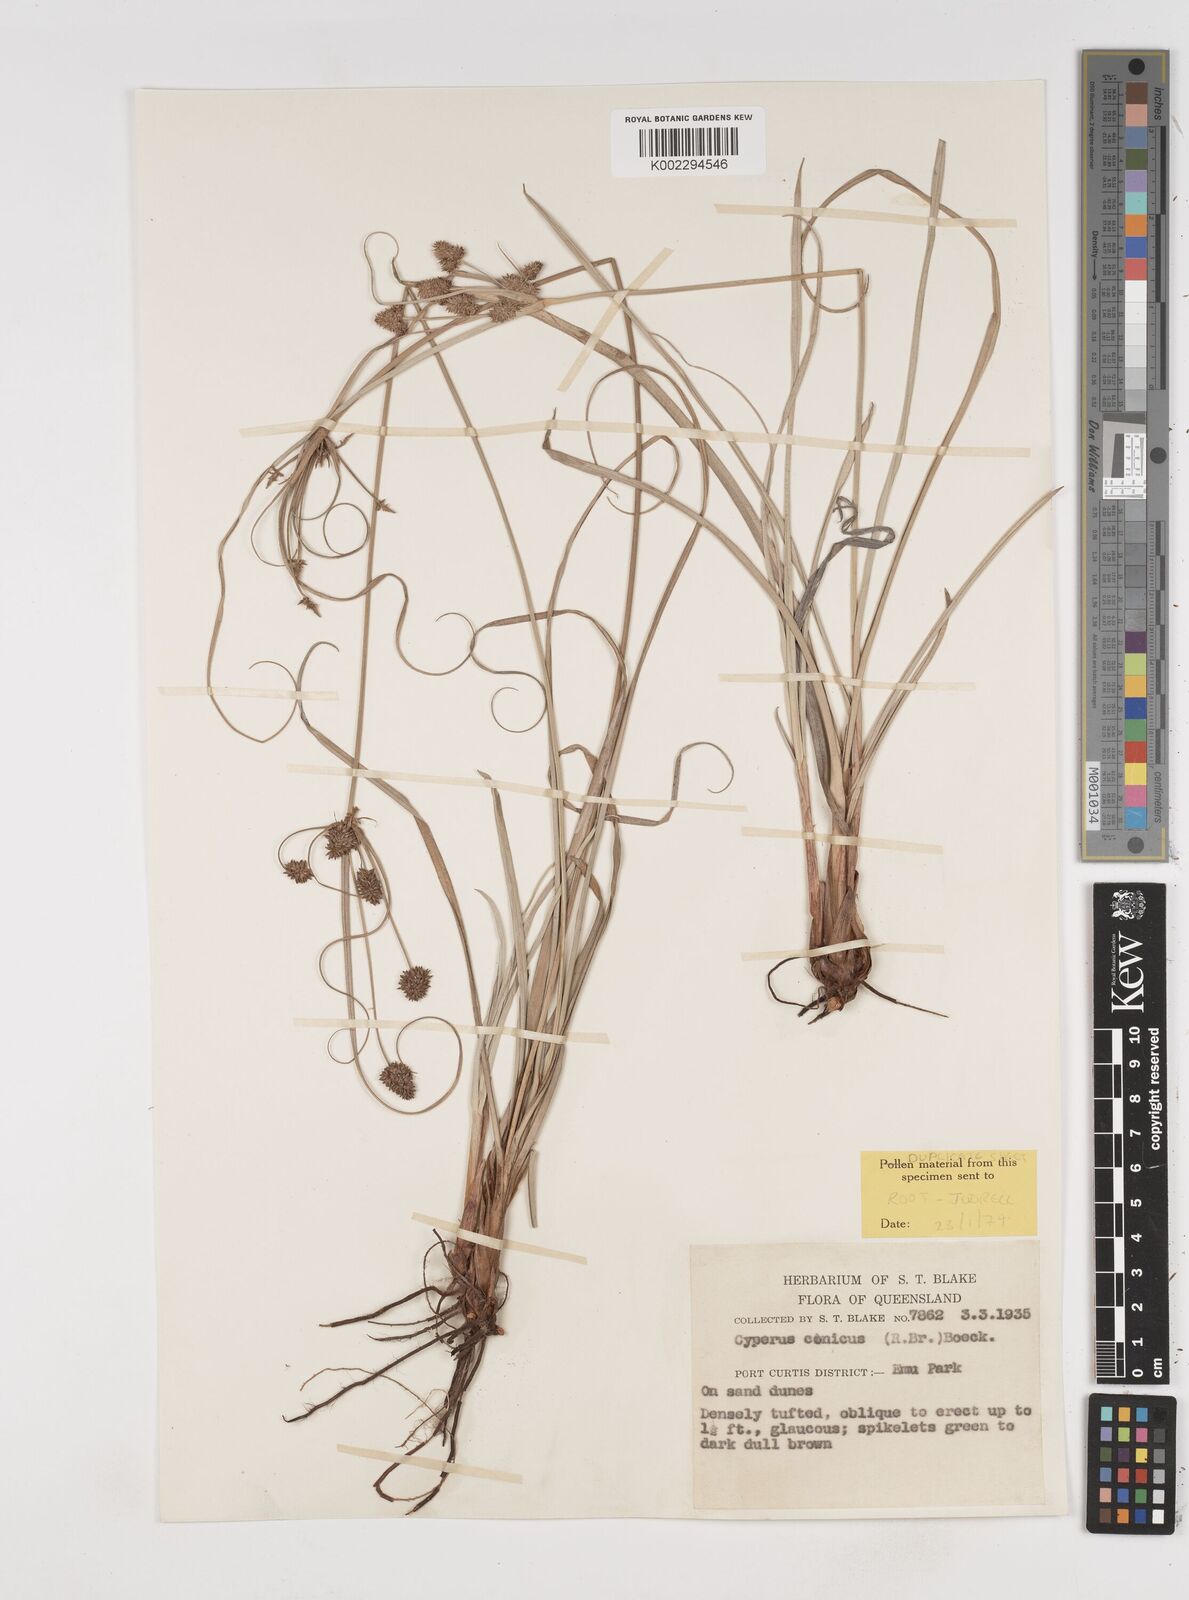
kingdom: Plantae
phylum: Tracheophyta
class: Liliopsida
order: Poales
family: Cyperaceae
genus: Cyperus
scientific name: Cyperus conicus
